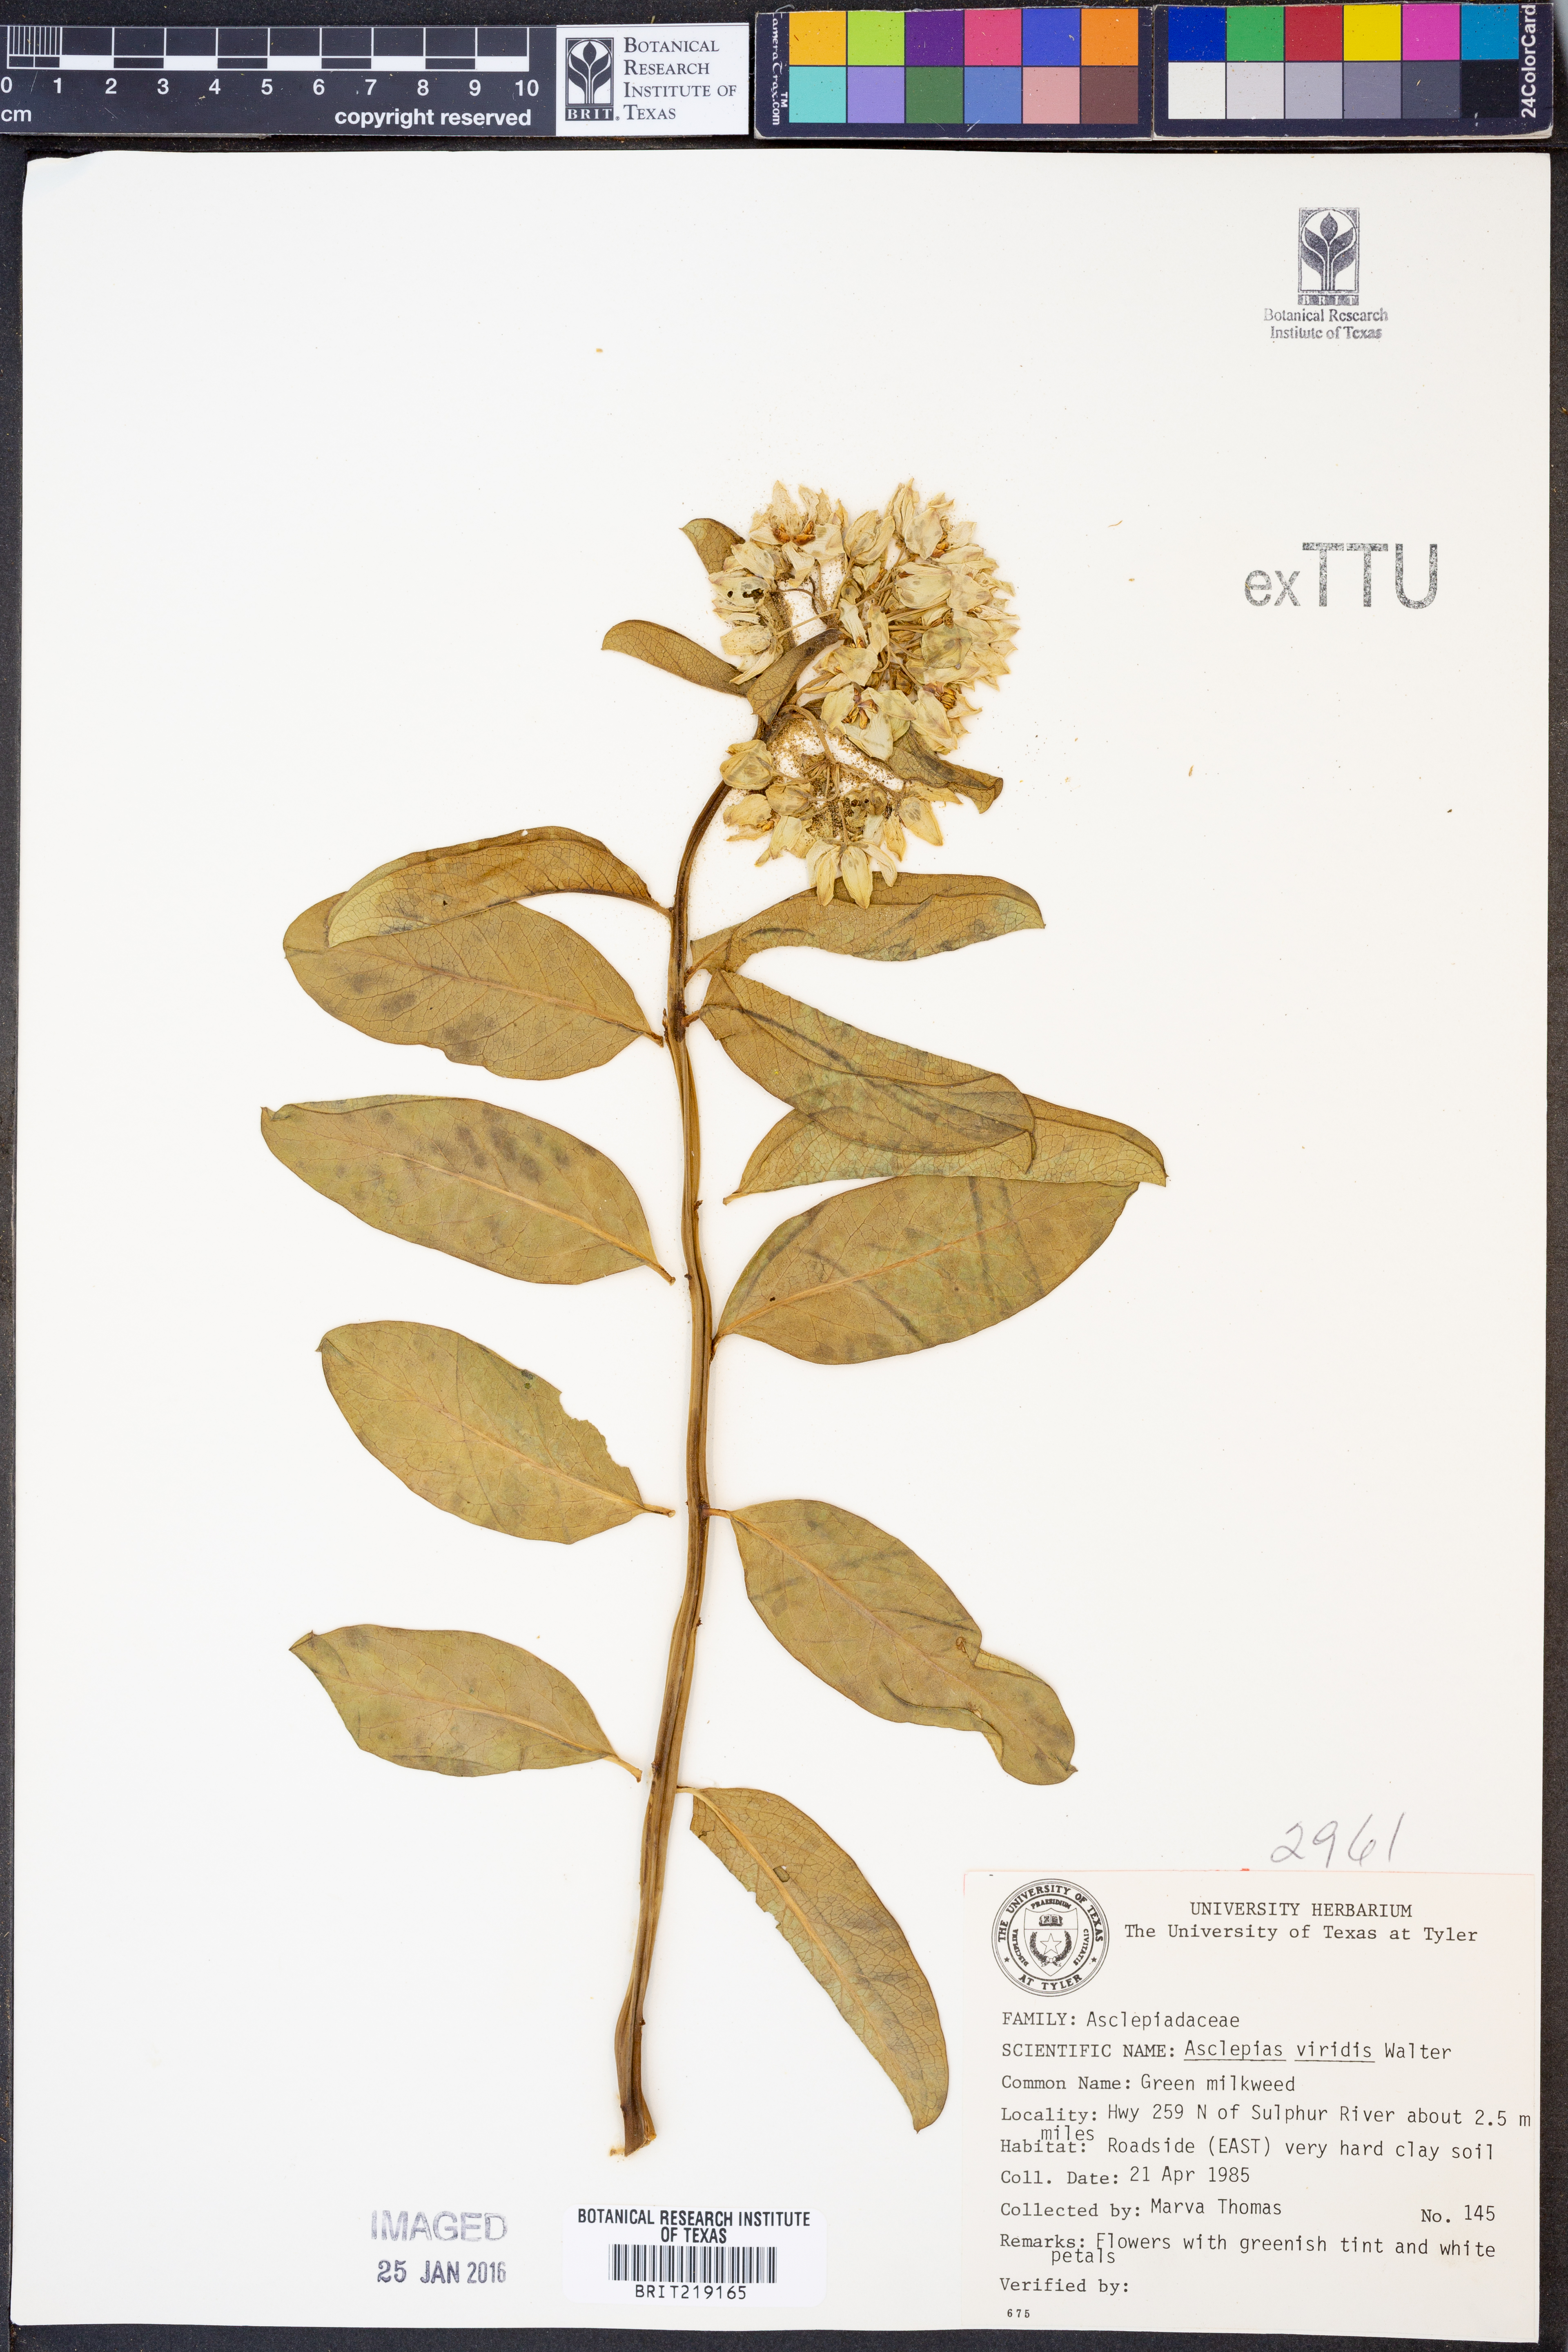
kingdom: Plantae
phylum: Tracheophyta
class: Magnoliopsida
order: Gentianales
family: Apocynaceae
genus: Asclepias
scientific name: Asclepias viridis
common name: Antelope-horns
